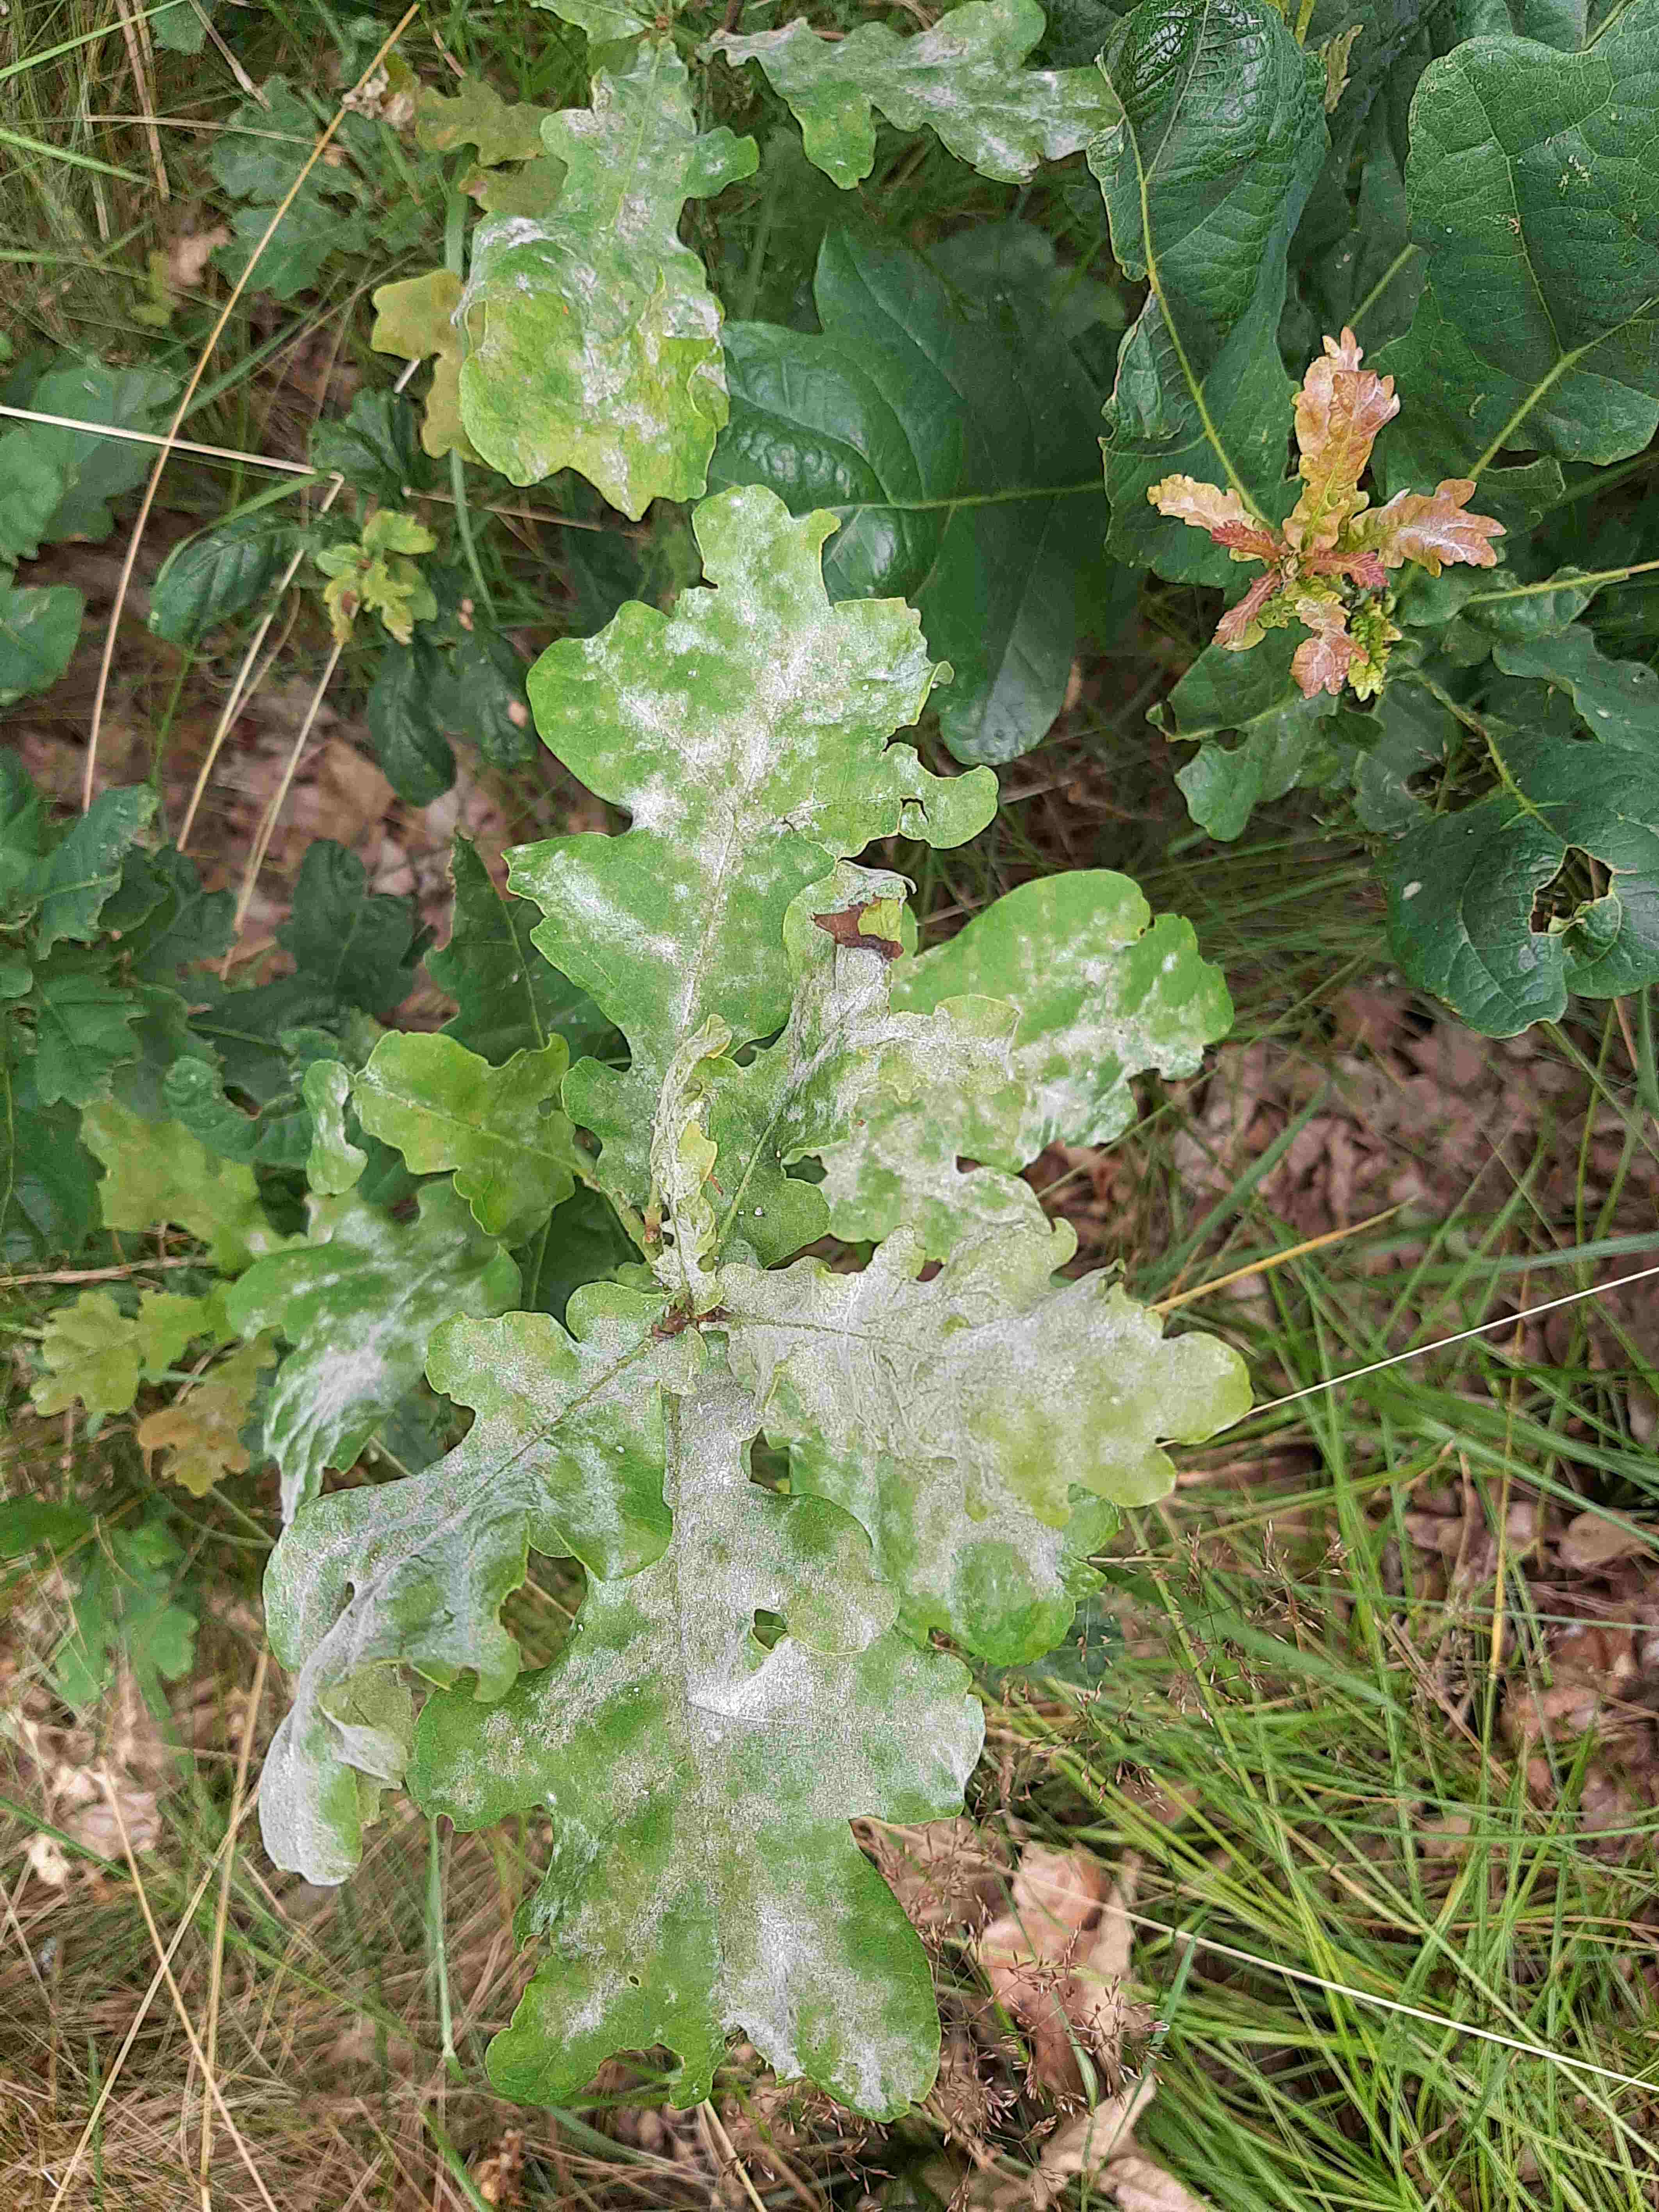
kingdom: Fungi
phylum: Ascomycota
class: Leotiomycetes
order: Helotiales
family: Erysiphaceae
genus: Erysiphe
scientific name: Erysiphe alphitoides
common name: ege-meldug
